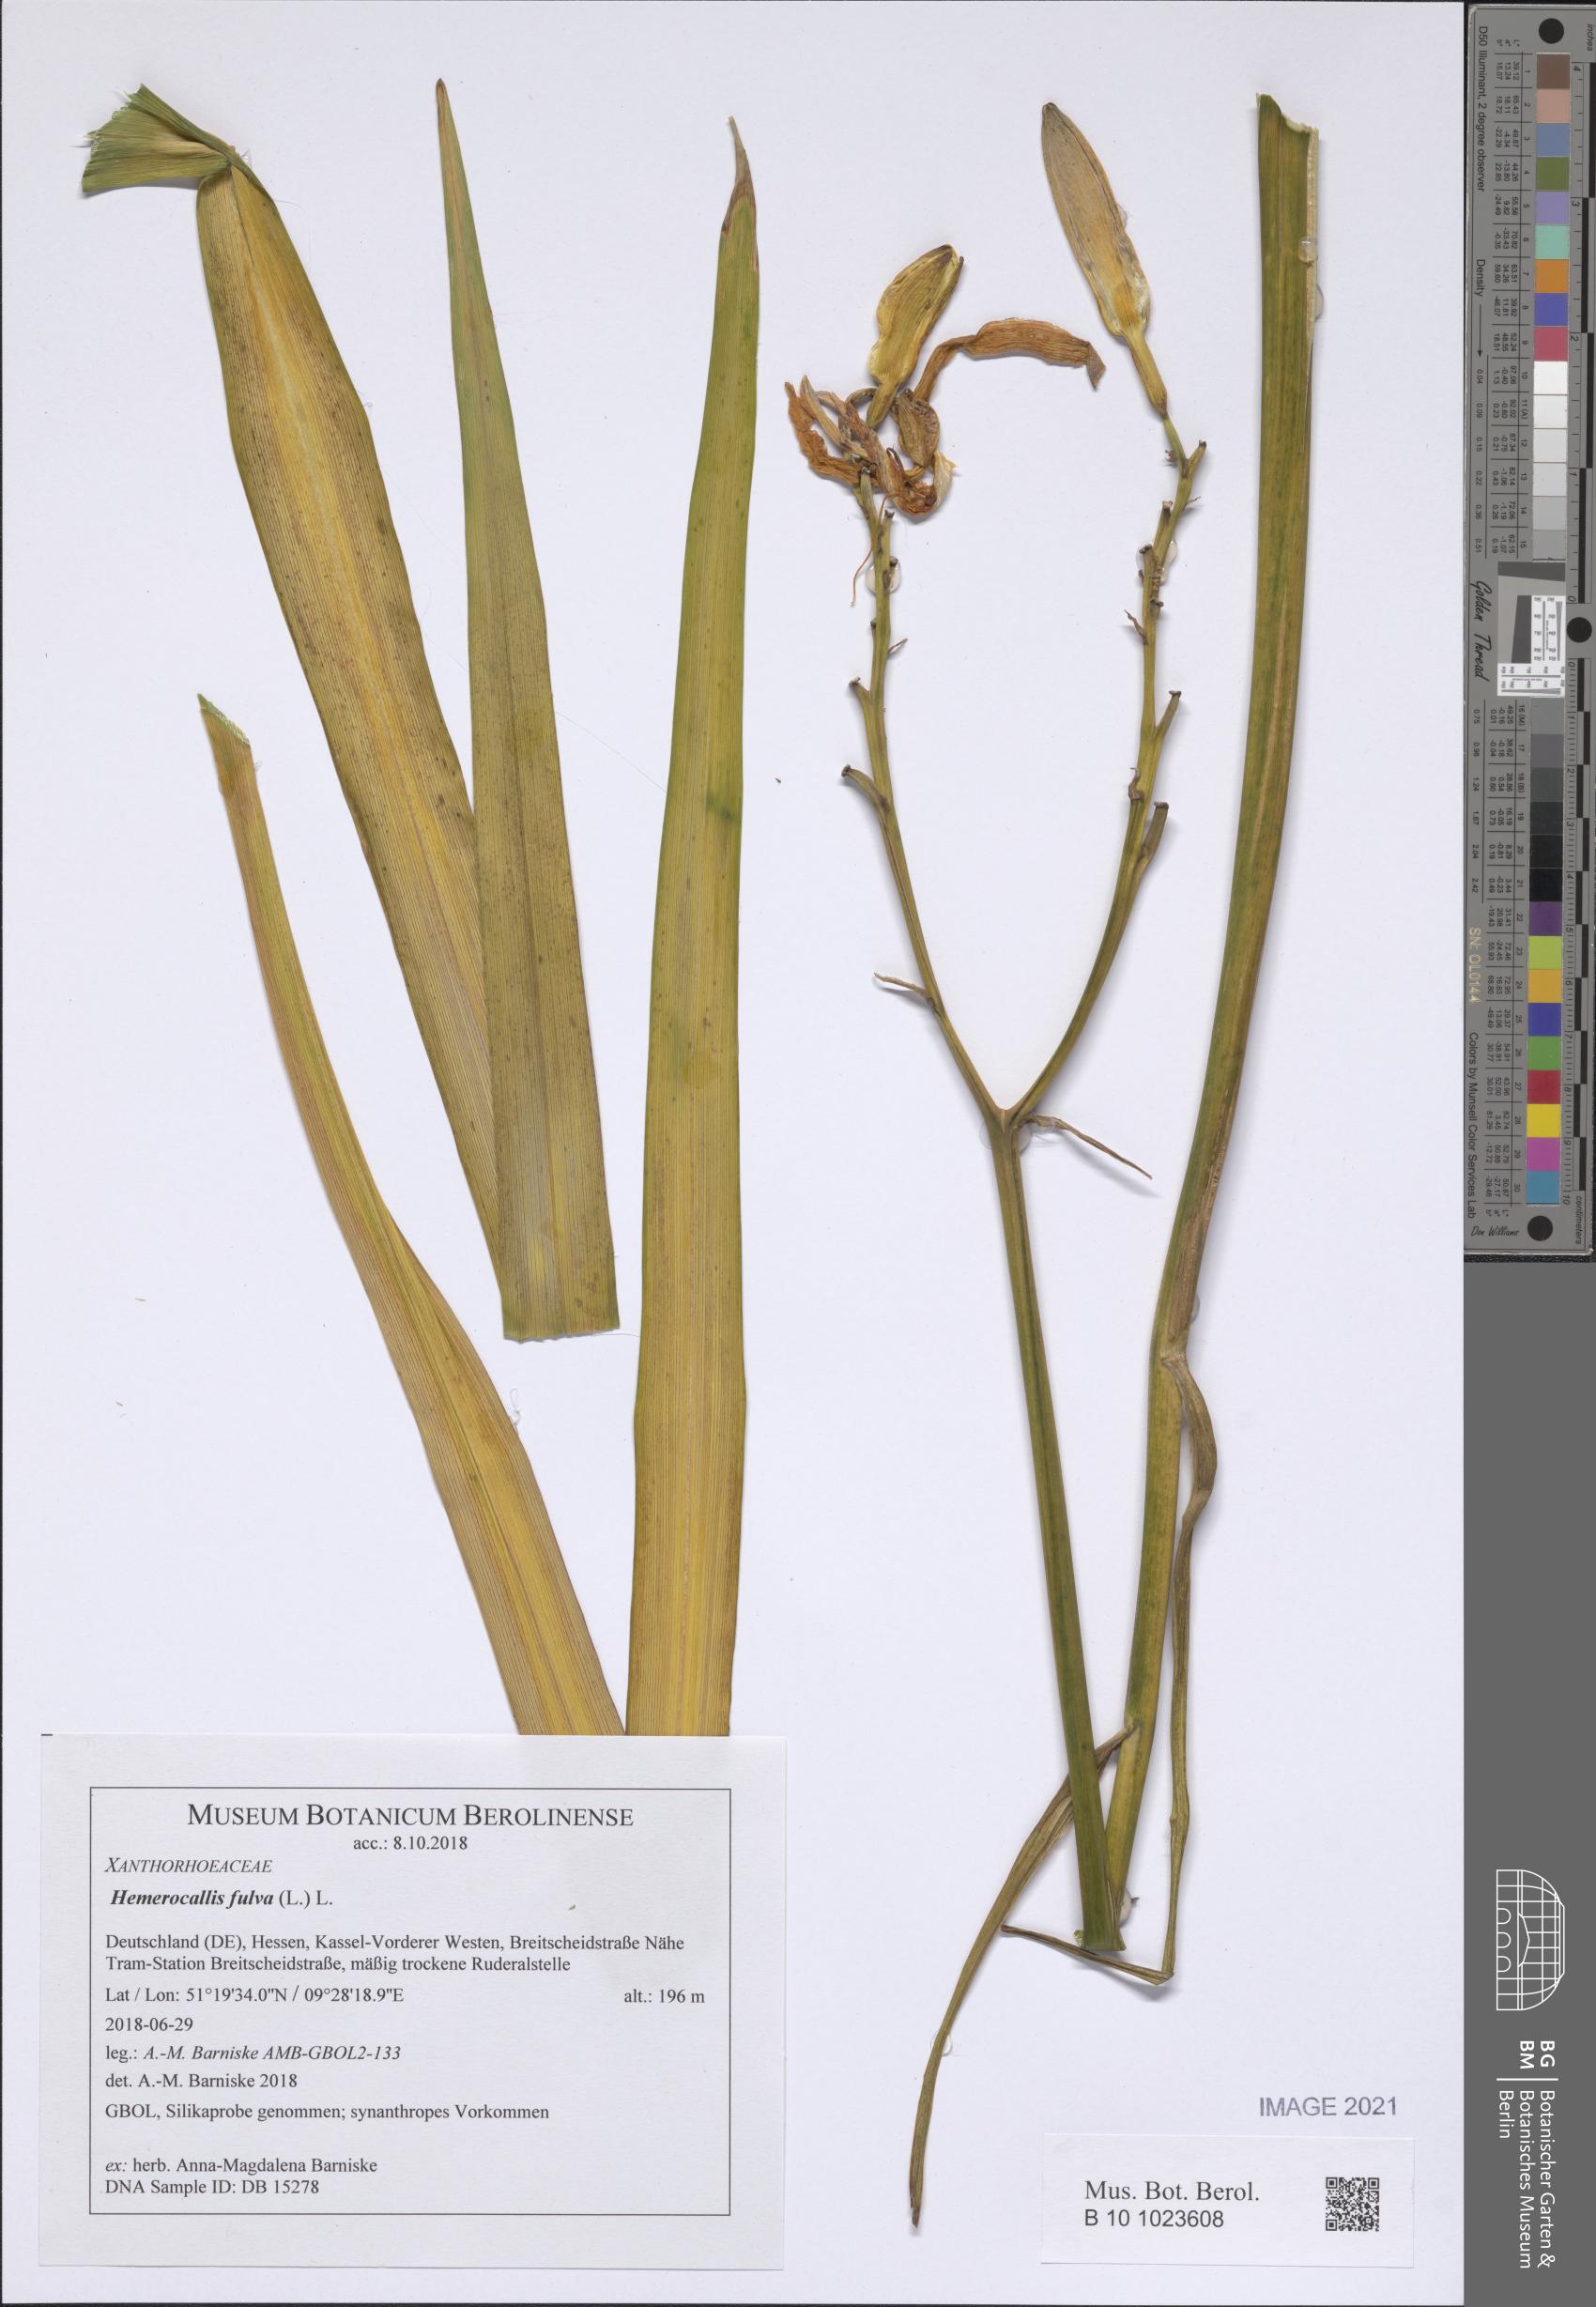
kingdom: Plantae
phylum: Tracheophyta
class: Liliopsida
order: Asparagales
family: Asphodelaceae
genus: Hemerocallis
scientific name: Hemerocallis fulva
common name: Orange day-lily
